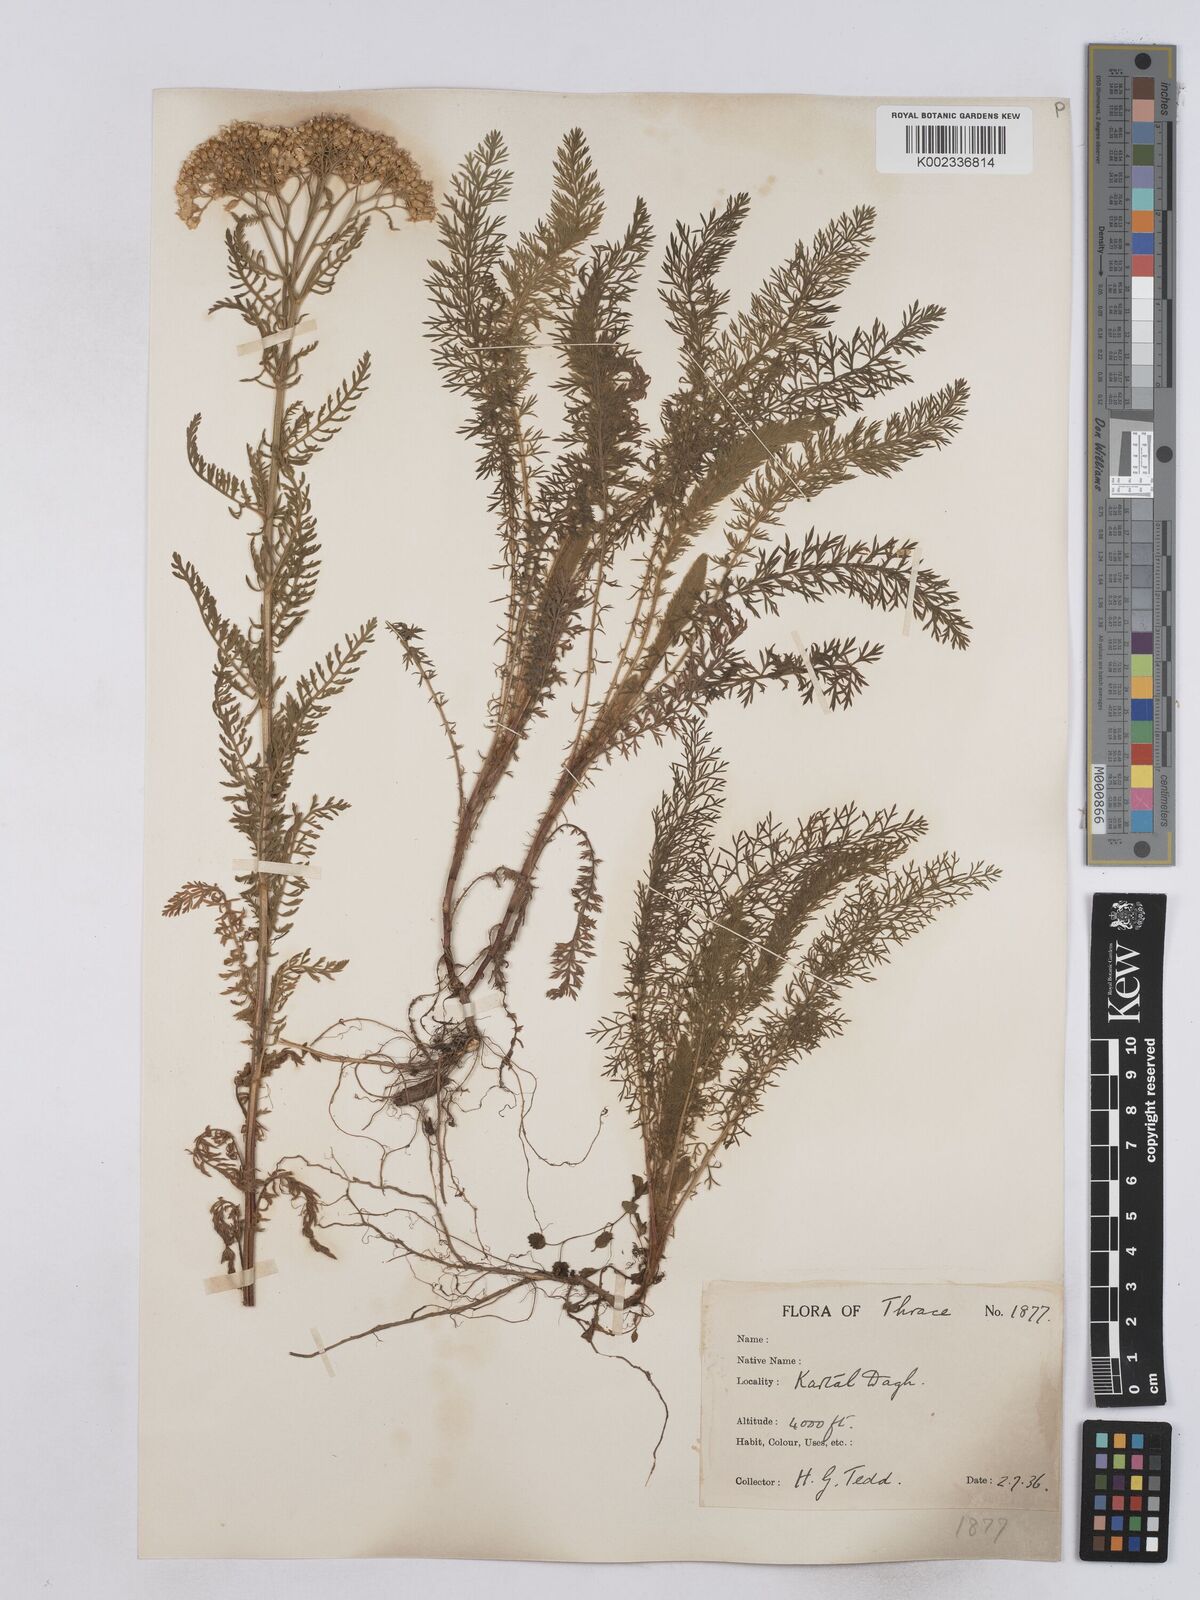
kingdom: Plantae
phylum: Tracheophyta
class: Magnoliopsida
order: Asterales
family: Asteraceae
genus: Achillea
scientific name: Achillea crithmifolia
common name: Yarrow
